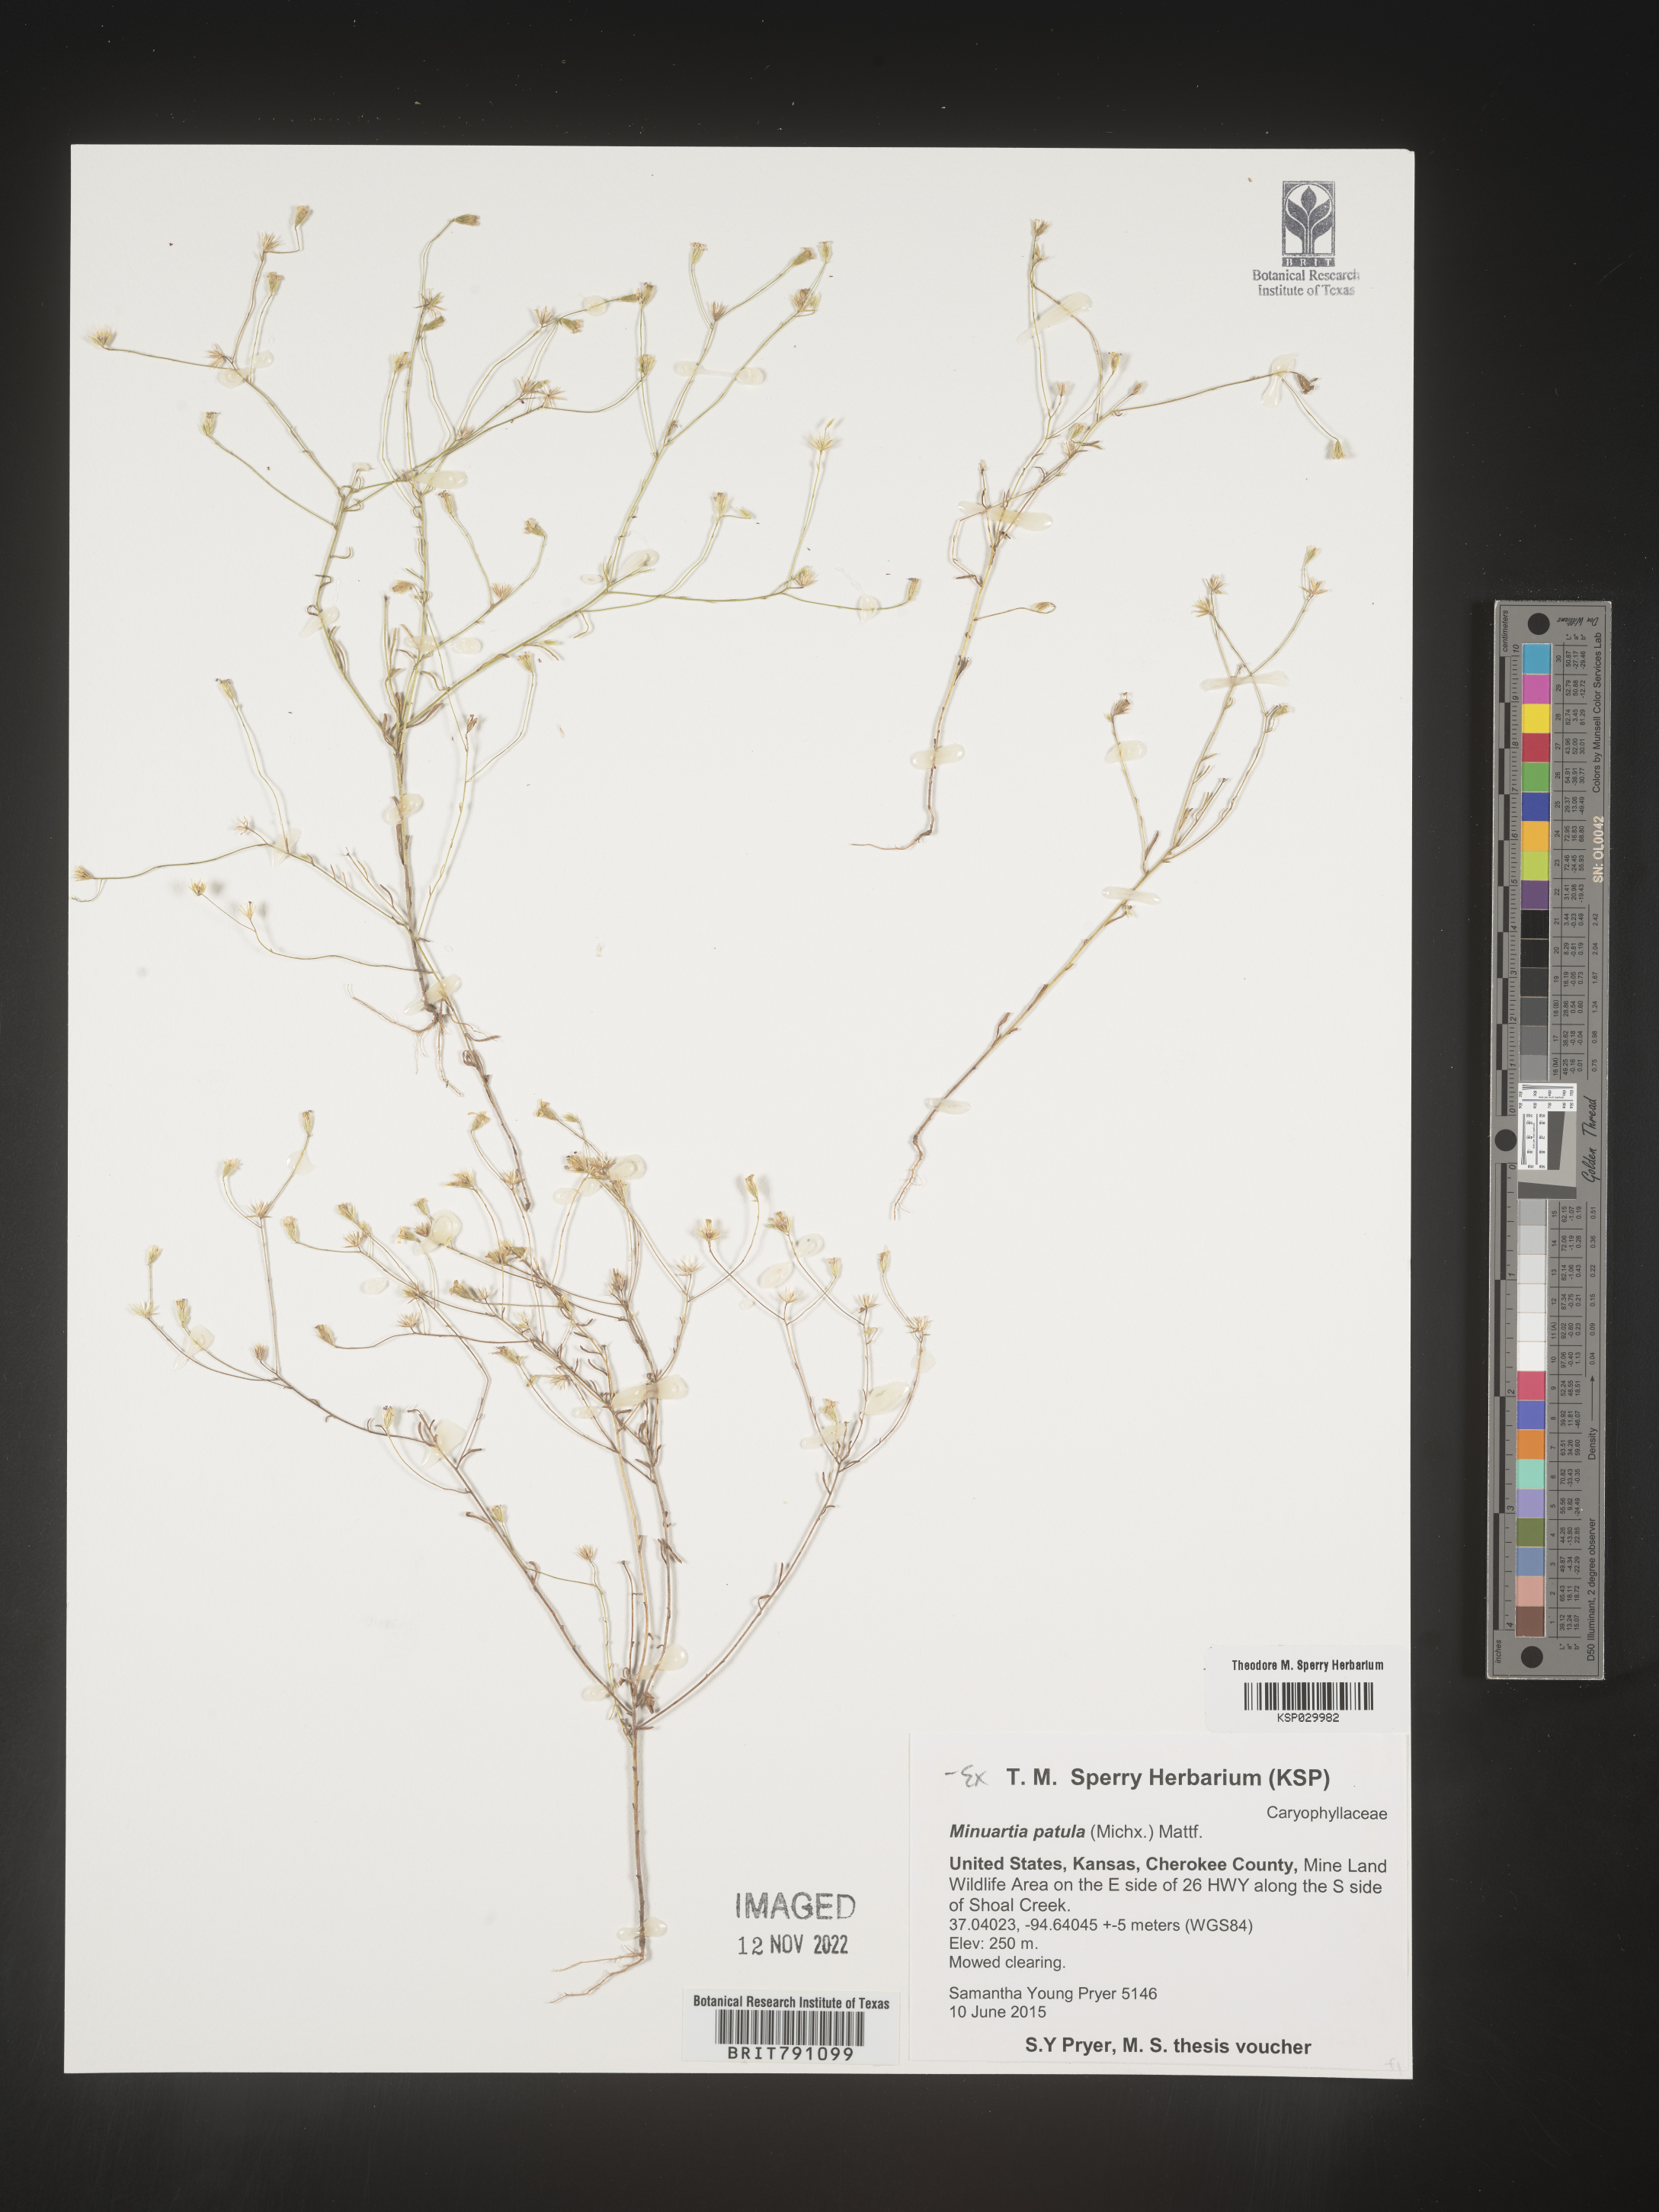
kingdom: Plantae
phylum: Tracheophyta
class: Magnoliopsida
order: Caryophyllales
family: Caryophyllaceae
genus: Mononeuria
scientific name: Mononeuria patula
